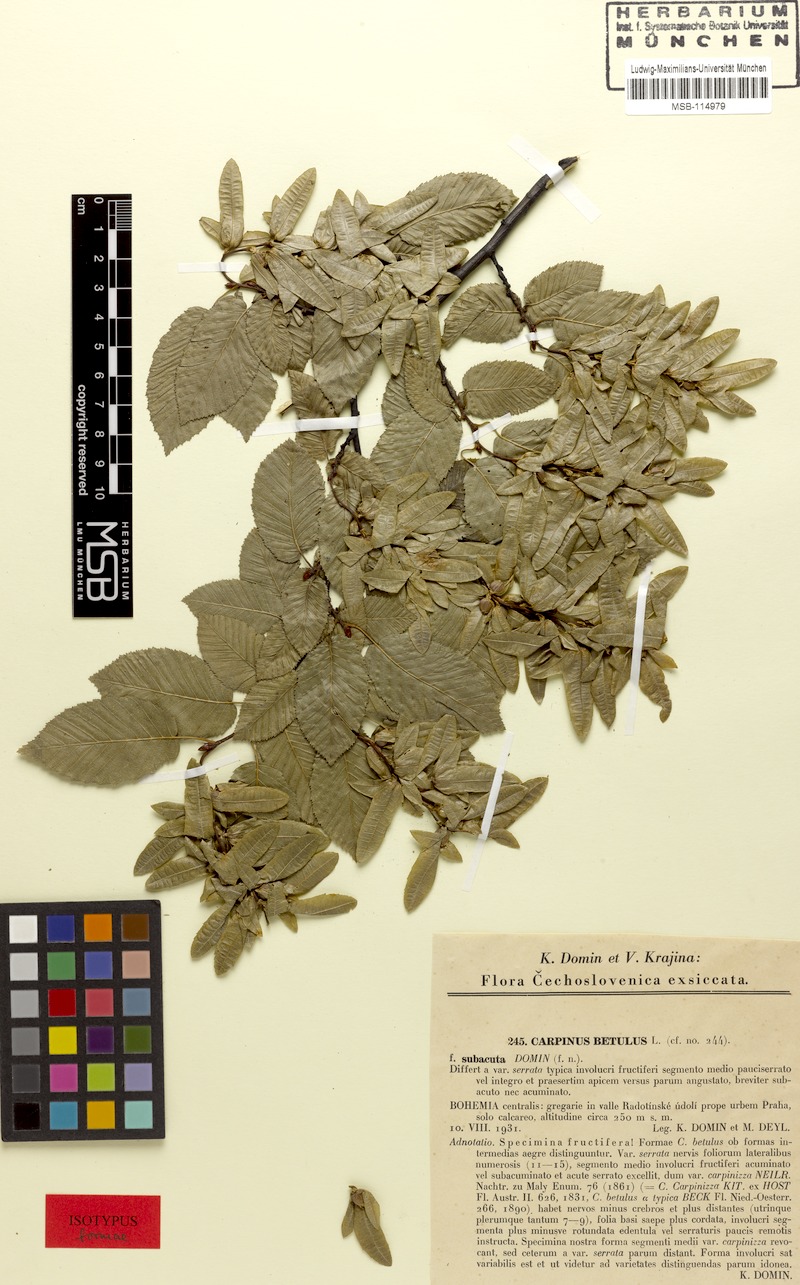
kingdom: Plantae
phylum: Tracheophyta
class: Magnoliopsida
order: Fagales
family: Betulaceae
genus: Carpinus
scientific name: Carpinus betulus
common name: Hornbeam
